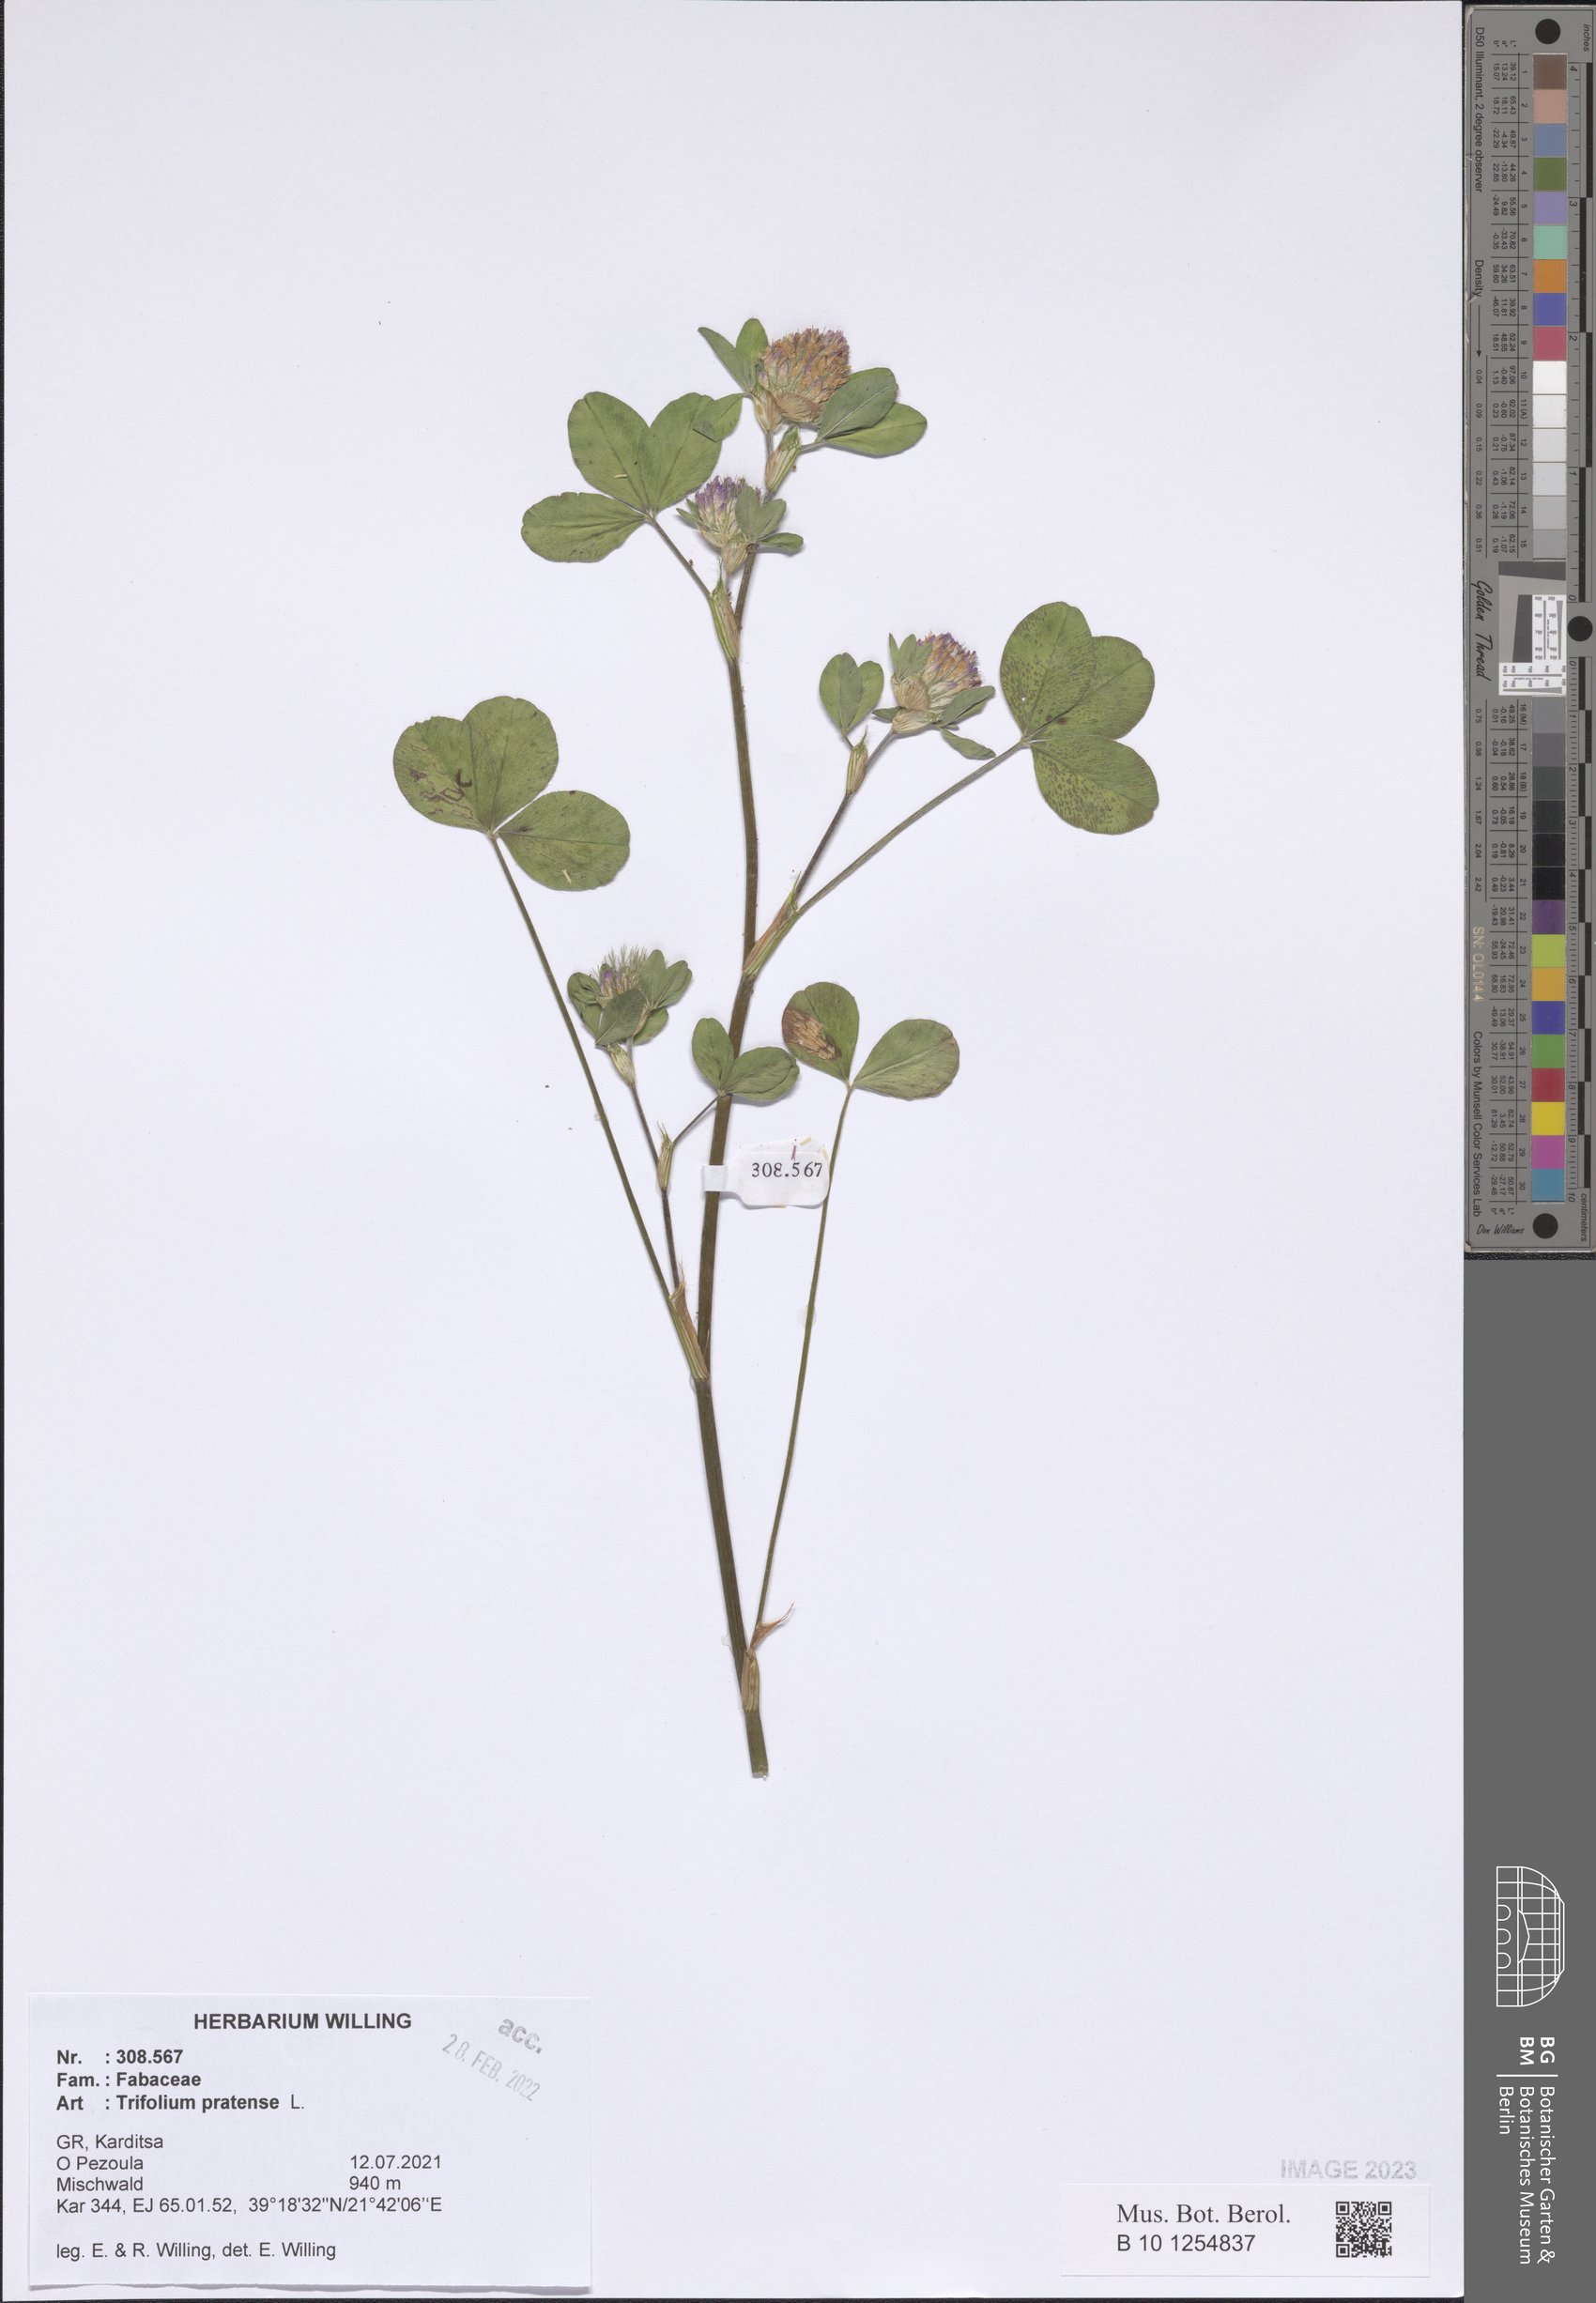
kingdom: Plantae
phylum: Tracheophyta
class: Magnoliopsida
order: Fabales
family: Fabaceae
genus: Trifolium
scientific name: Trifolium pratense
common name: Red clover
